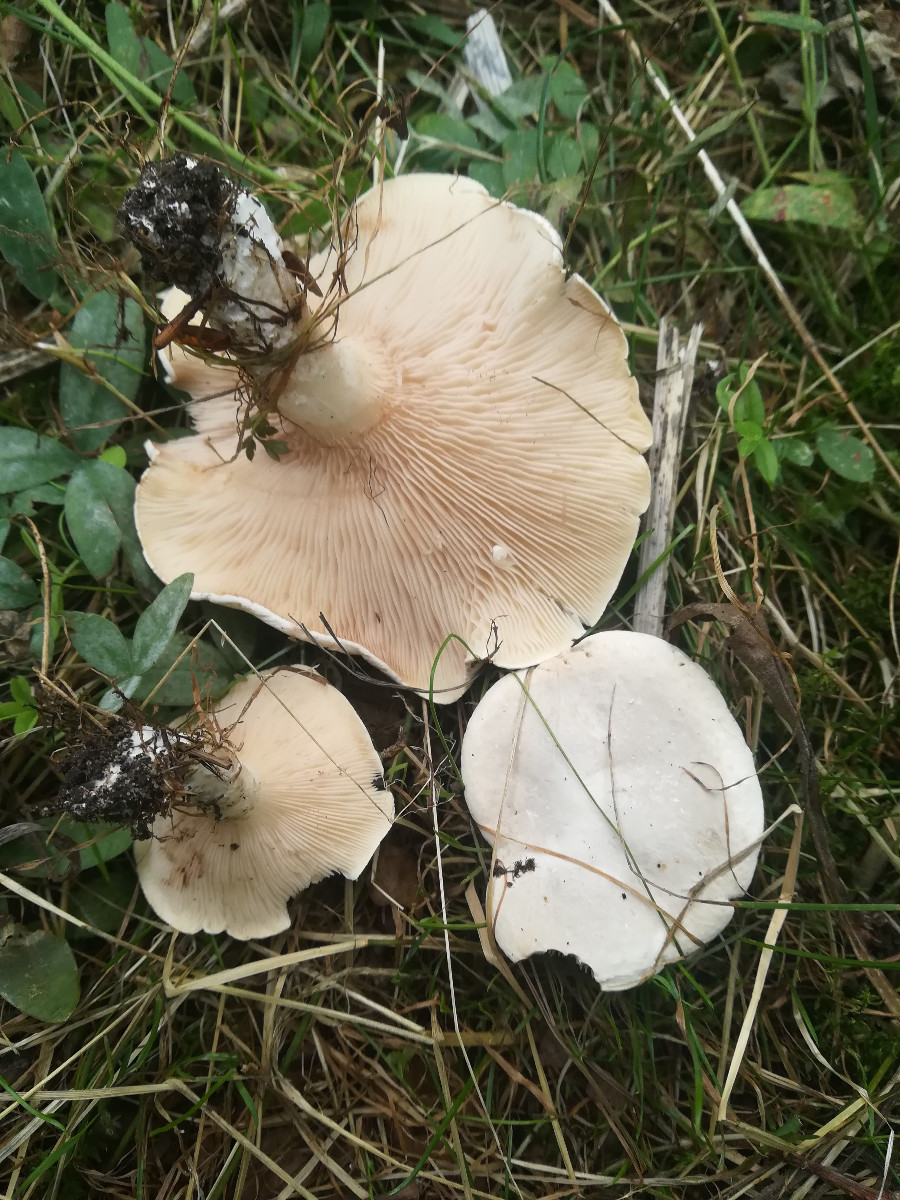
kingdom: Fungi
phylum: Basidiomycota
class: Agaricomycetes
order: Agaricales
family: Entolomataceae
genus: Clitopilus
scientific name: Clitopilus prunulus
